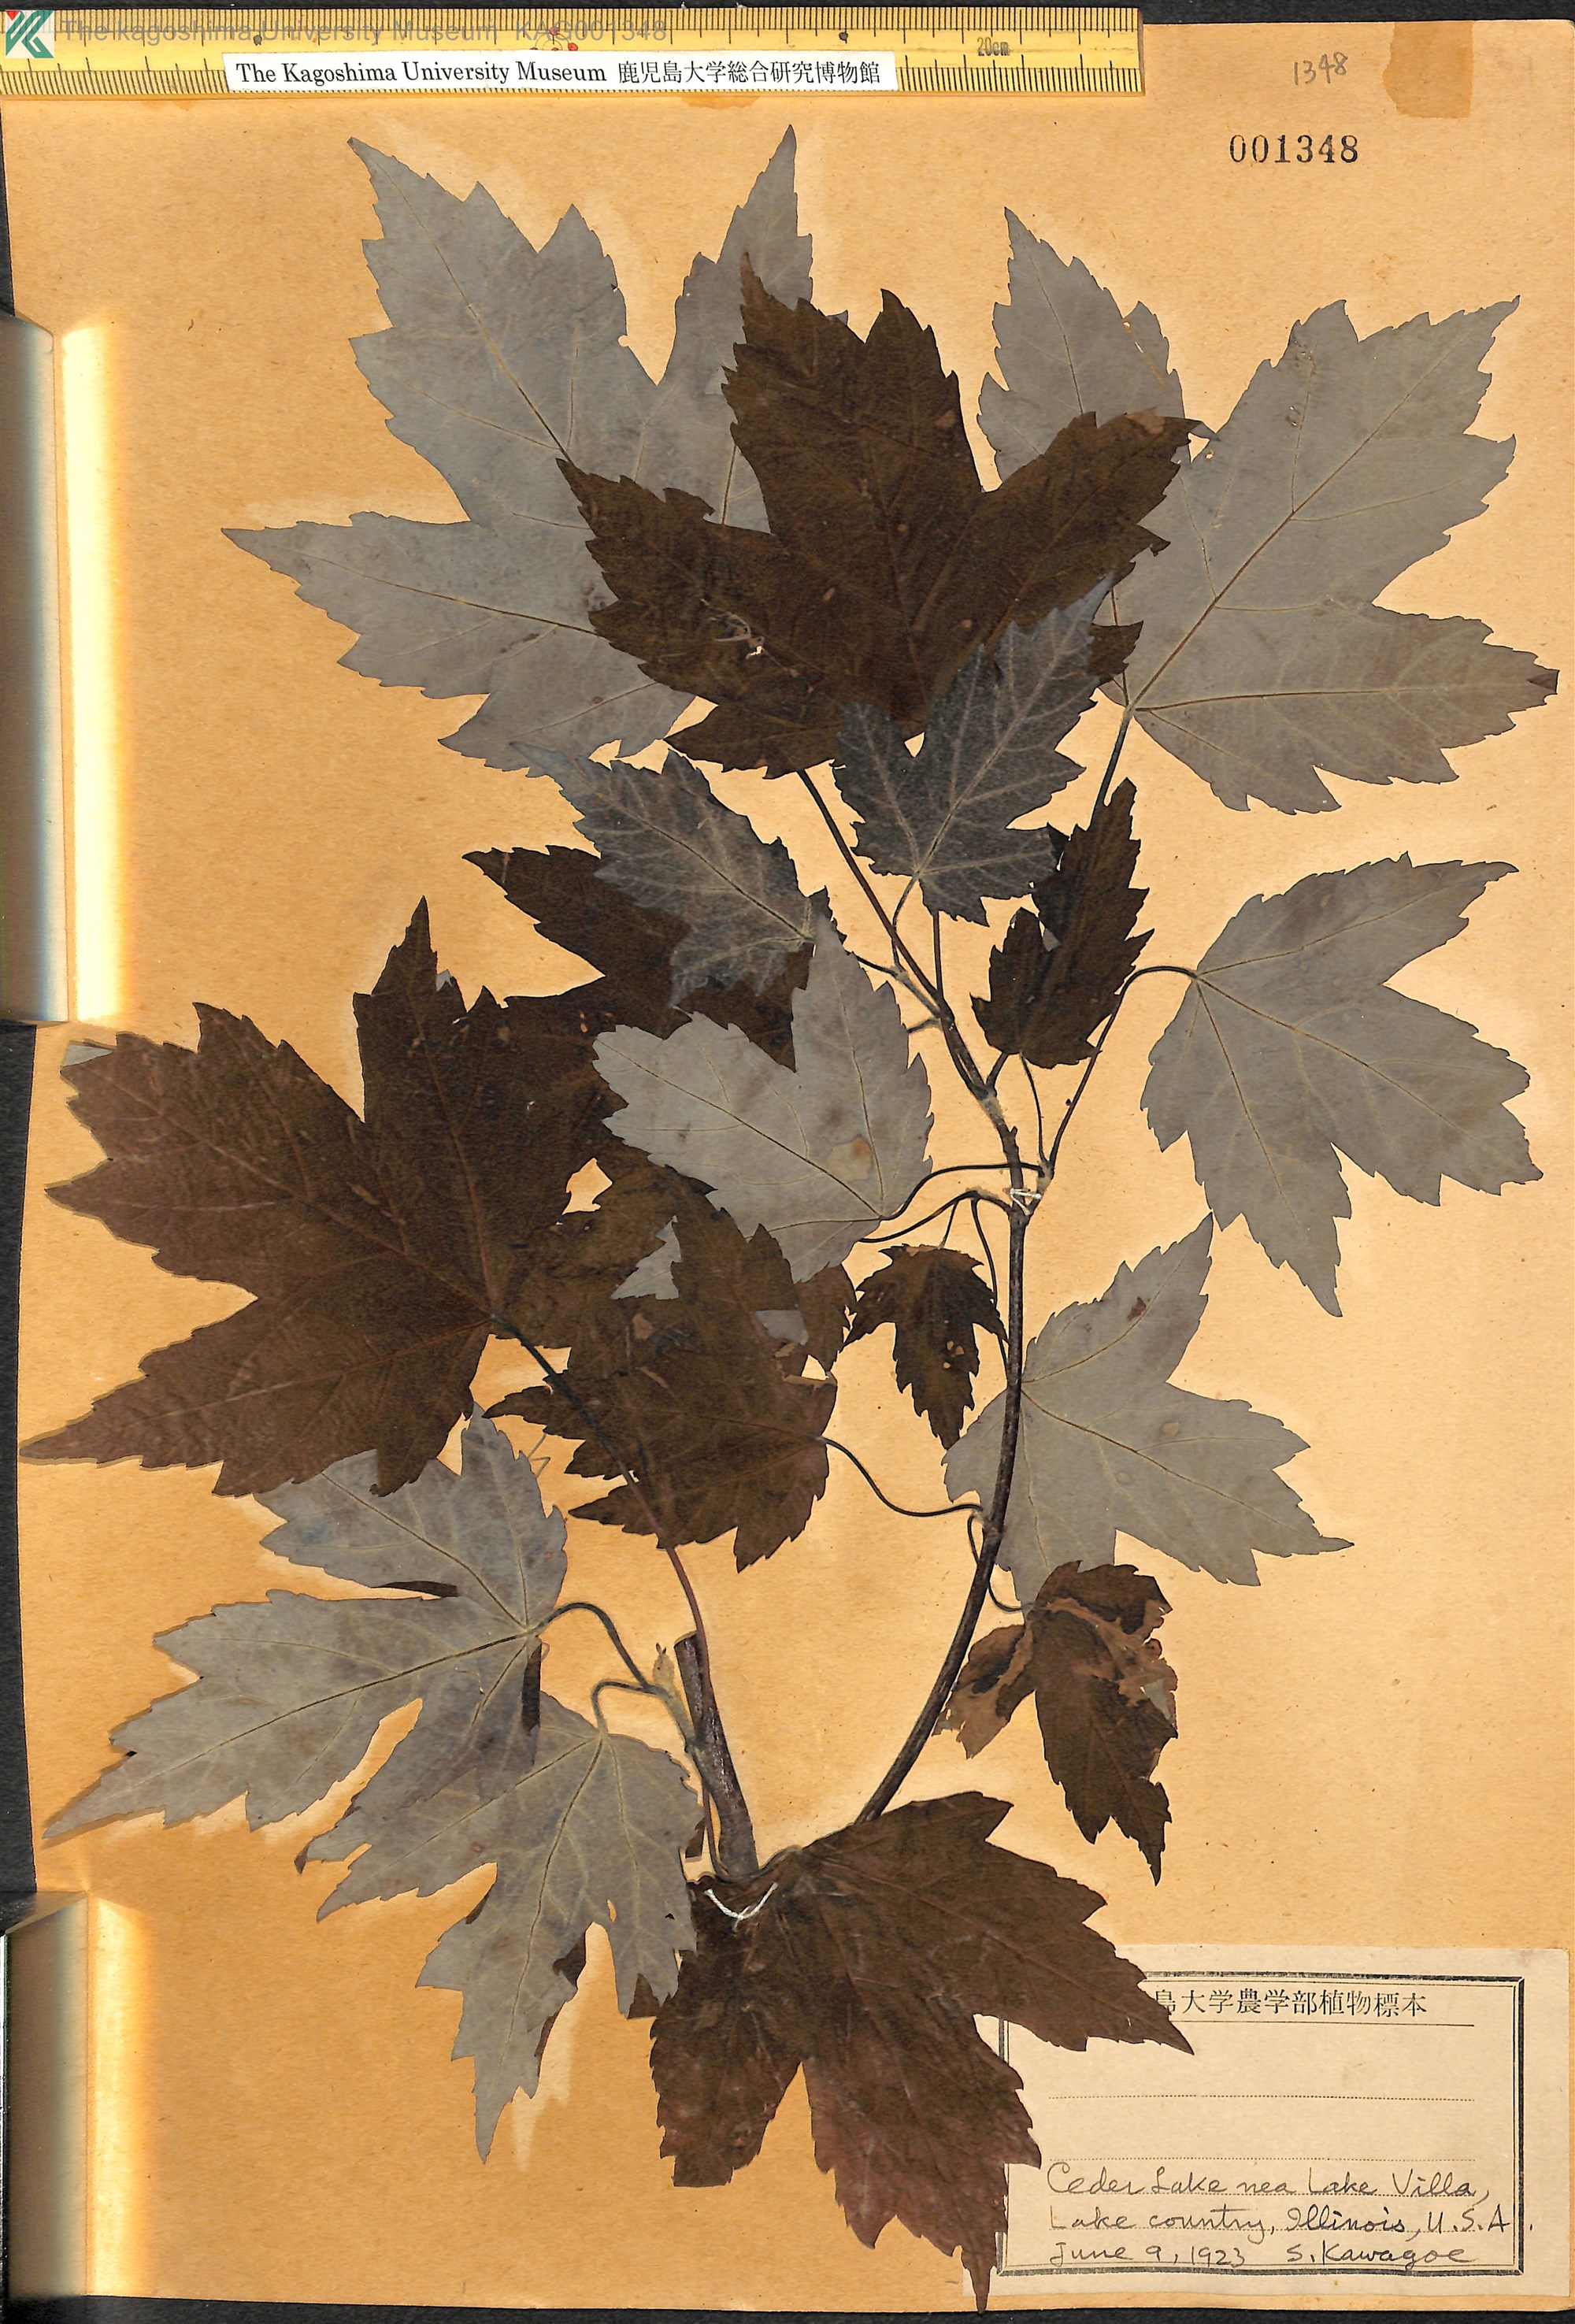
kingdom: Plantae
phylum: Tracheophyta
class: Magnoliopsida
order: Sapindales
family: Sapindaceae
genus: Acer
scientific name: Acer
